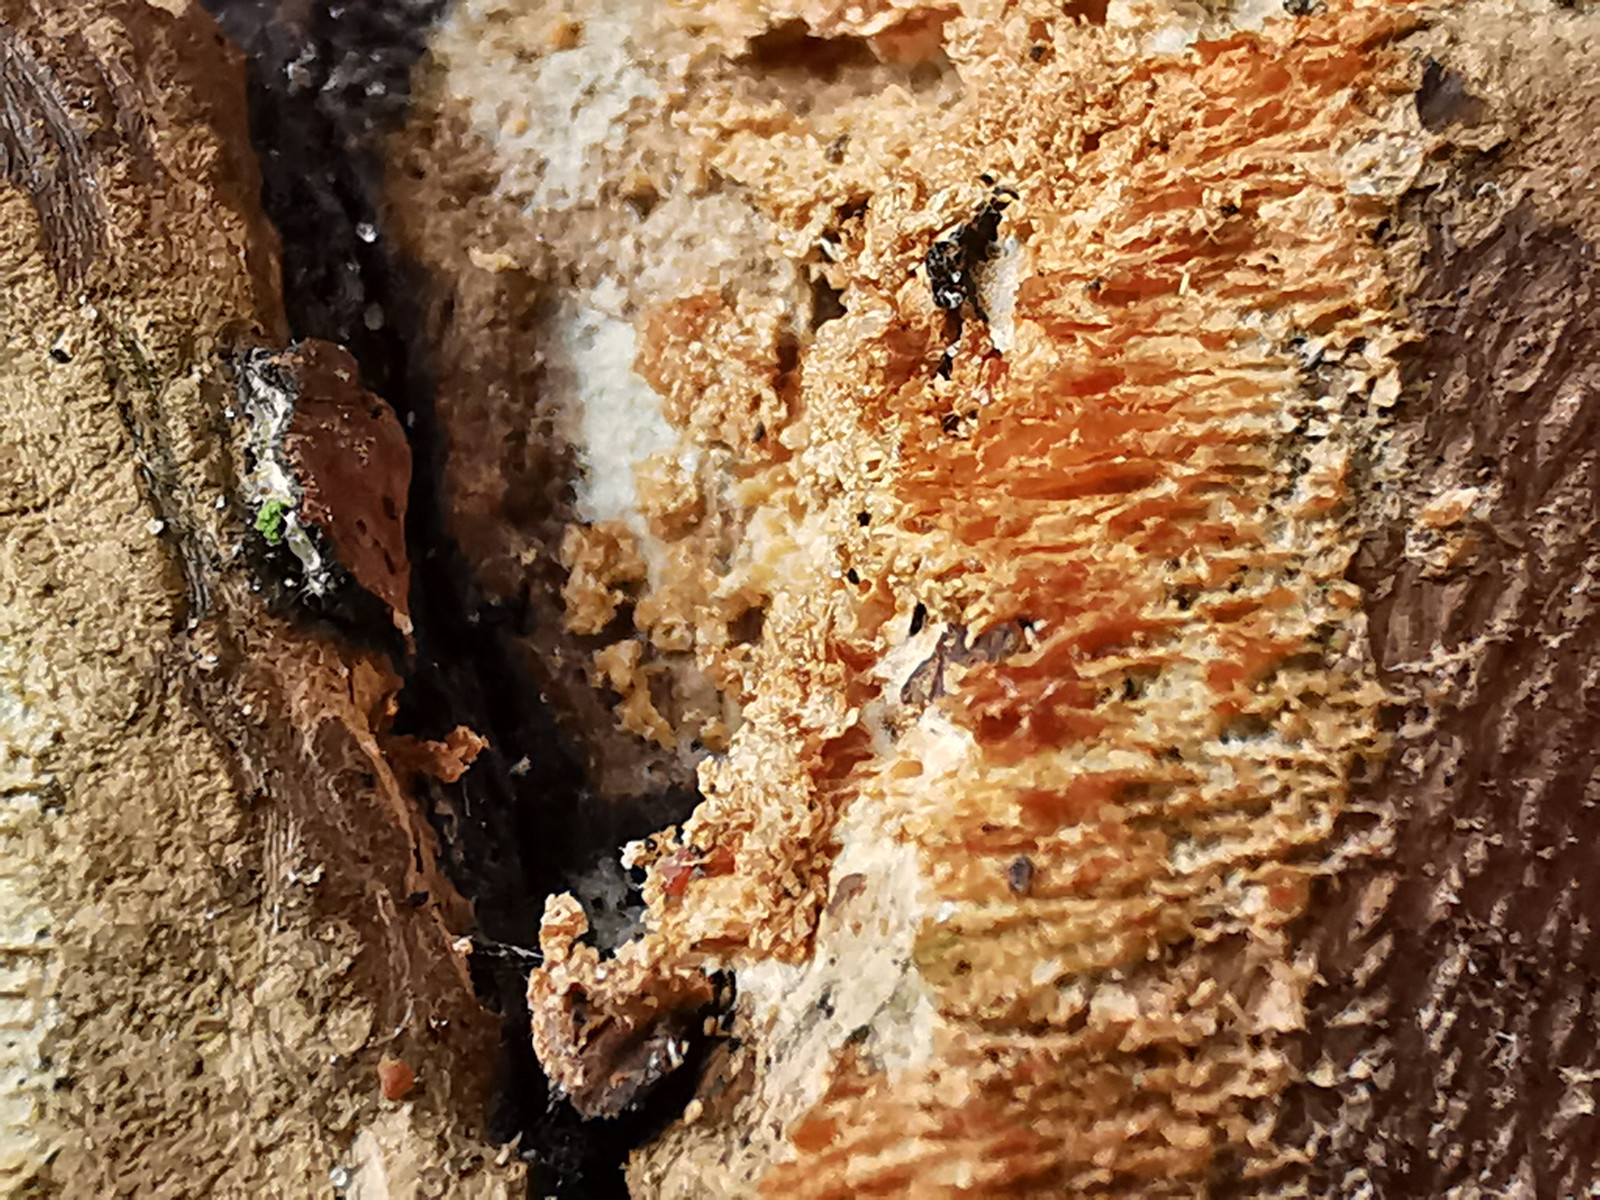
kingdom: Fungi
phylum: Basidiomycota
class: Agaricomycetes
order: Polyporales
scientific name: Polyporales
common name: poresvampordenen
